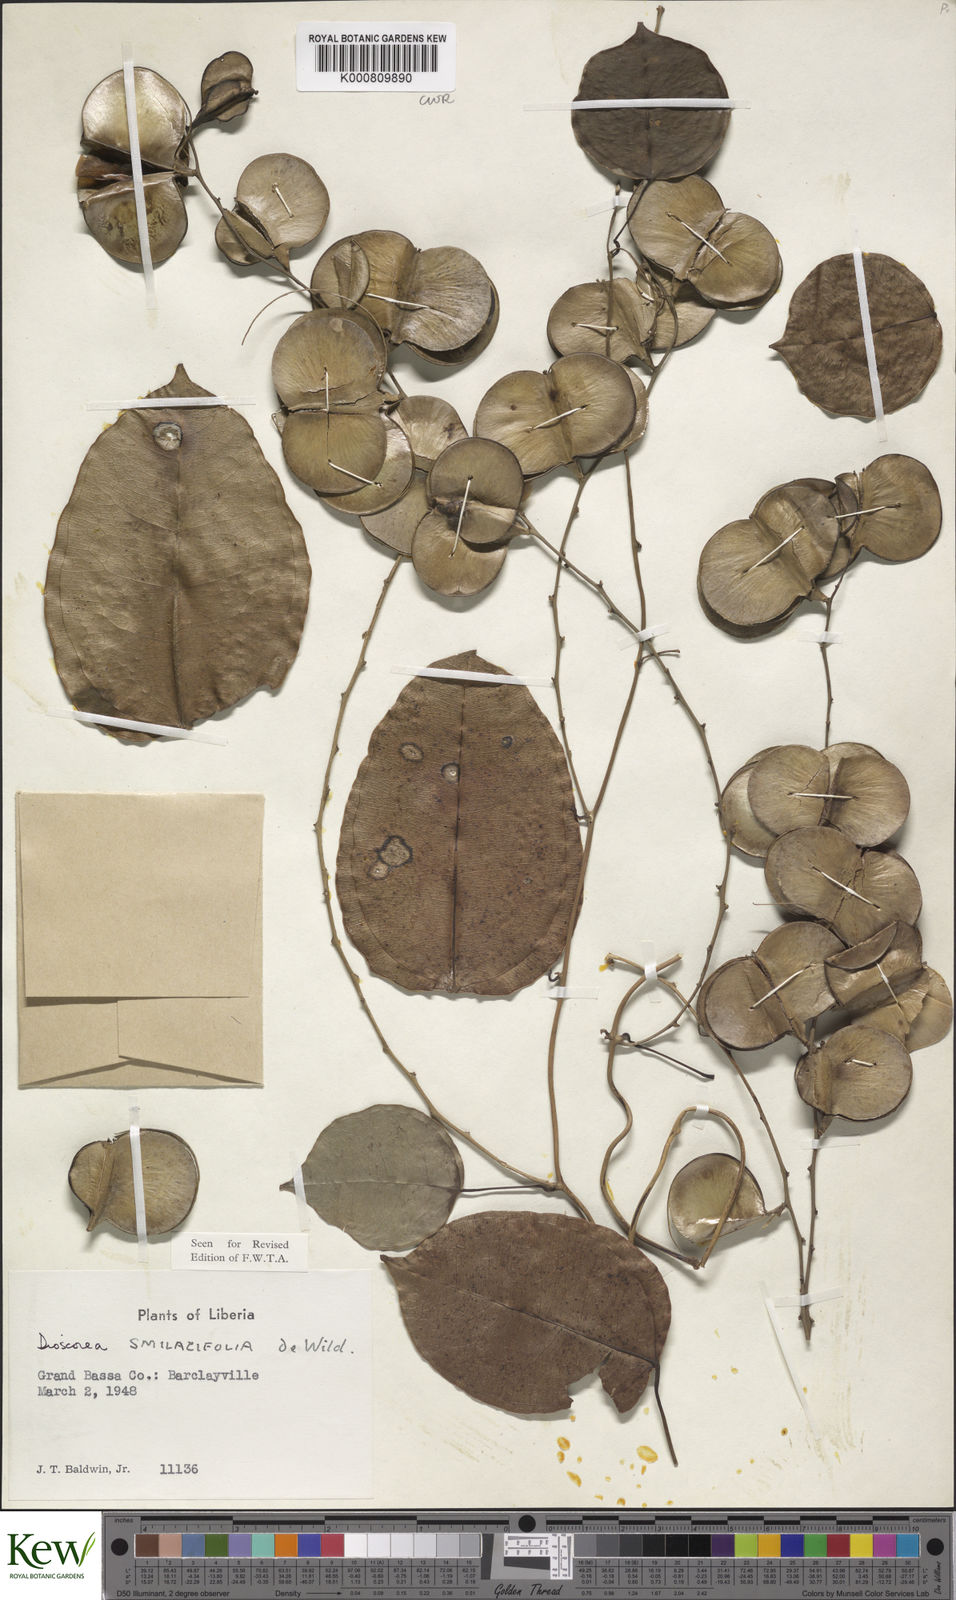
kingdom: Plantae
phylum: Tracheophyta
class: Liliopsida
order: Dioscoreales
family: Dioscoreaceae
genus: Dioscorea
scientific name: Dioscorea smilacifolia
